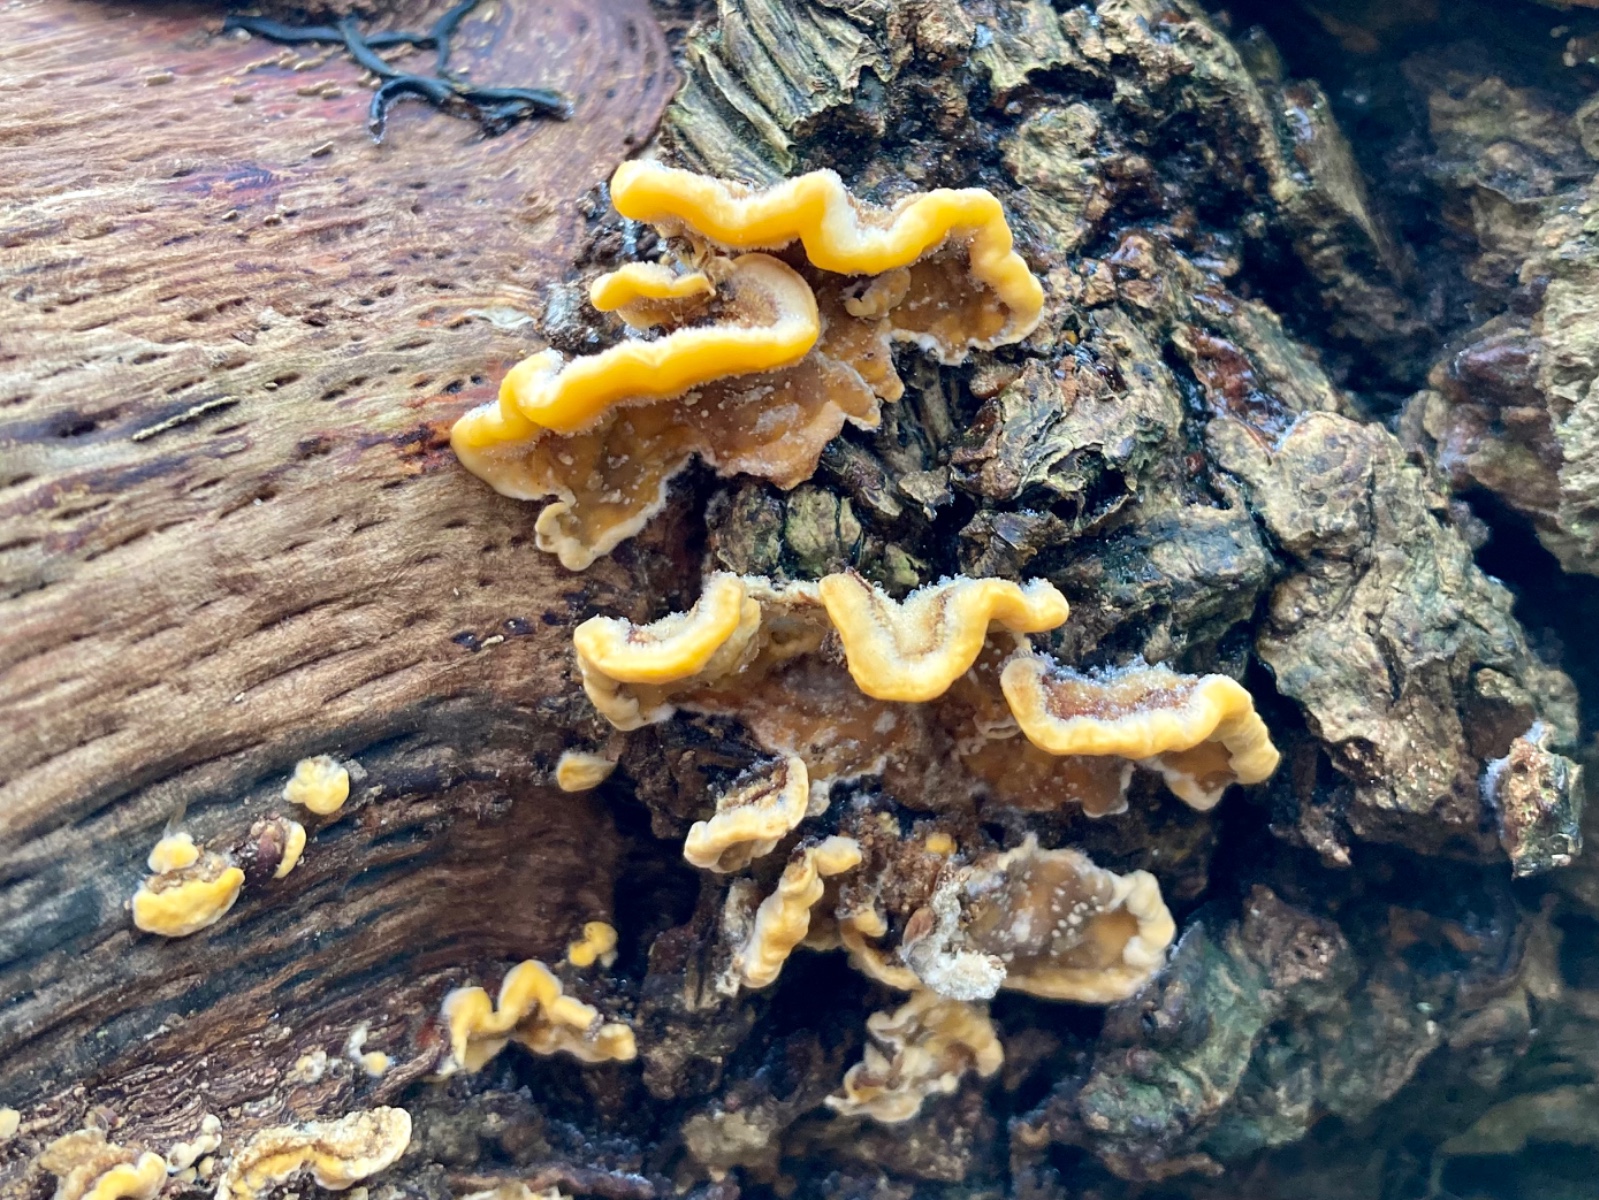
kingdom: Fungi
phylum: Basidiomycota
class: Agaricomycetes
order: Russulales
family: Stereaceae
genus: Stereum
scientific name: Stereum hirsutum
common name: håret lædersvamp
